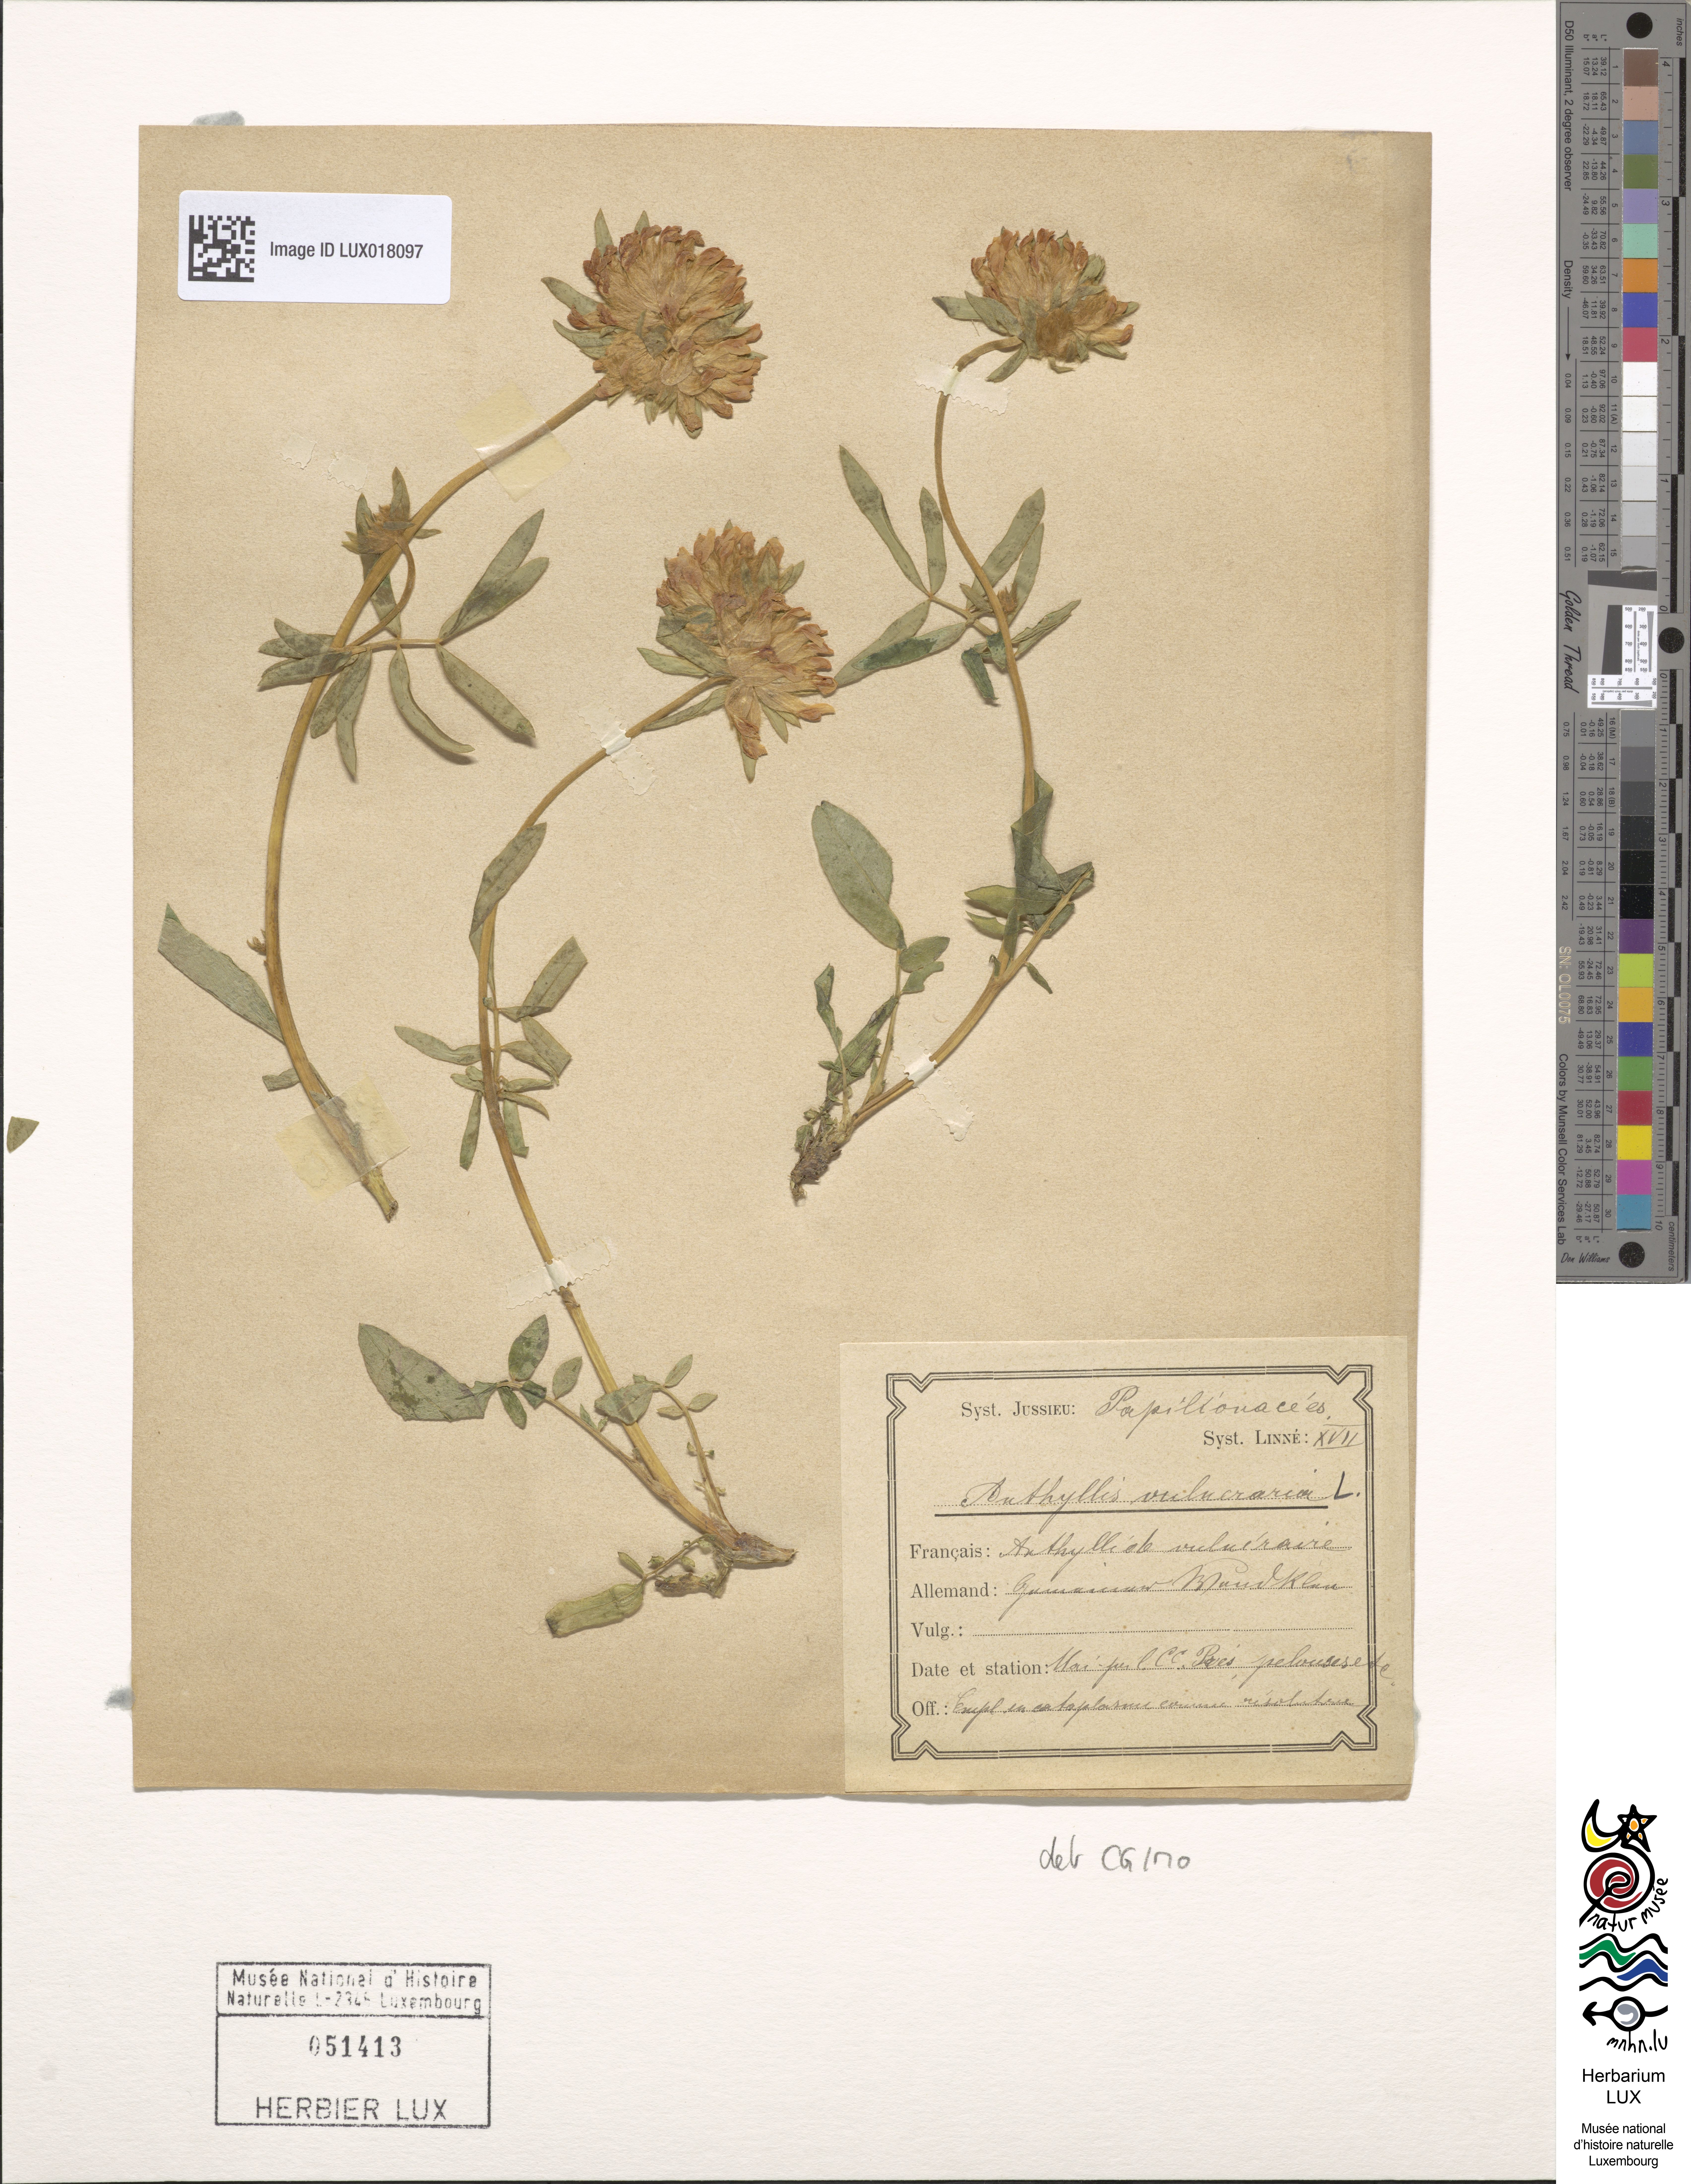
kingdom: Plantae
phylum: Tracheophyta
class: Magnoliopsida
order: Fabales
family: Fabaceae
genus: Anthyllis
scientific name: Anthyllis vulneraria
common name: Kidney vetch
